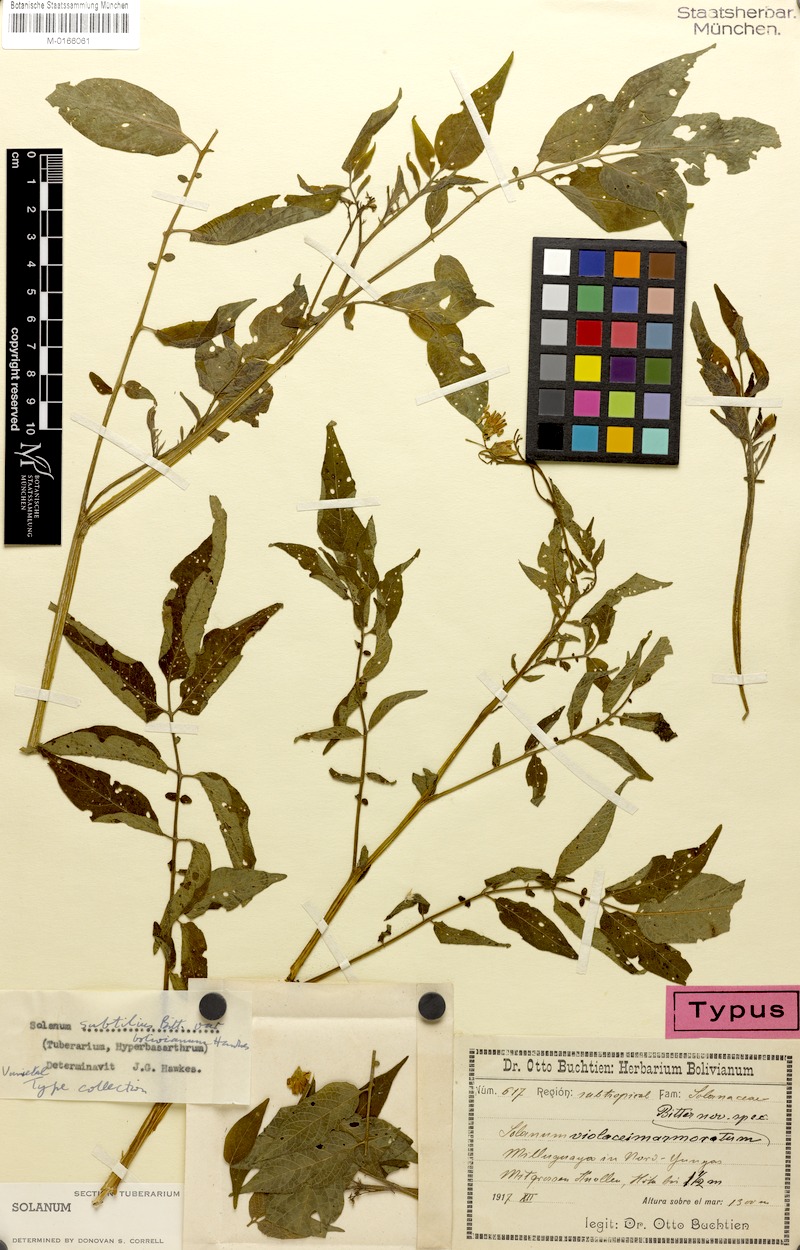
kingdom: Plantae
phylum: Tracheophyta
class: Magnoliopsida
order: Solanales
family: Solanaceae
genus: Solanum
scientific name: Solanum chacoense
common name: Chaco potato
